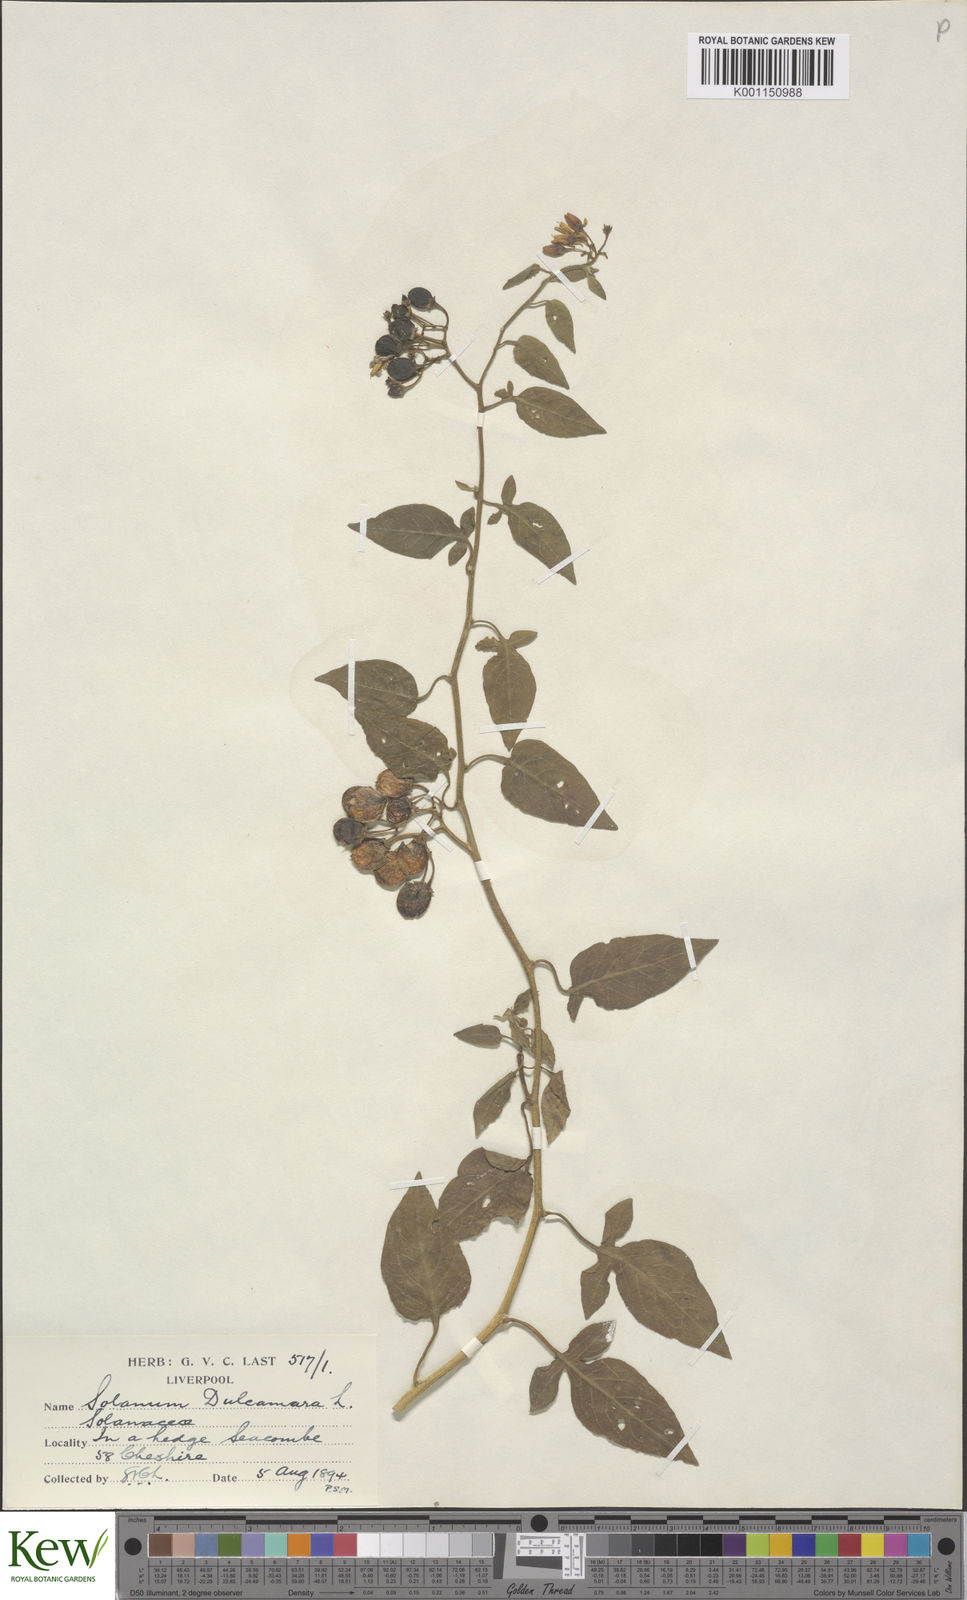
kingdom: Plantae
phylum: Tracheophyta
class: Magnoliopsida
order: Solanales
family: Solanaceae
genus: Solanum
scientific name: Solanum dulcamara
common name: Climbing nightshade
